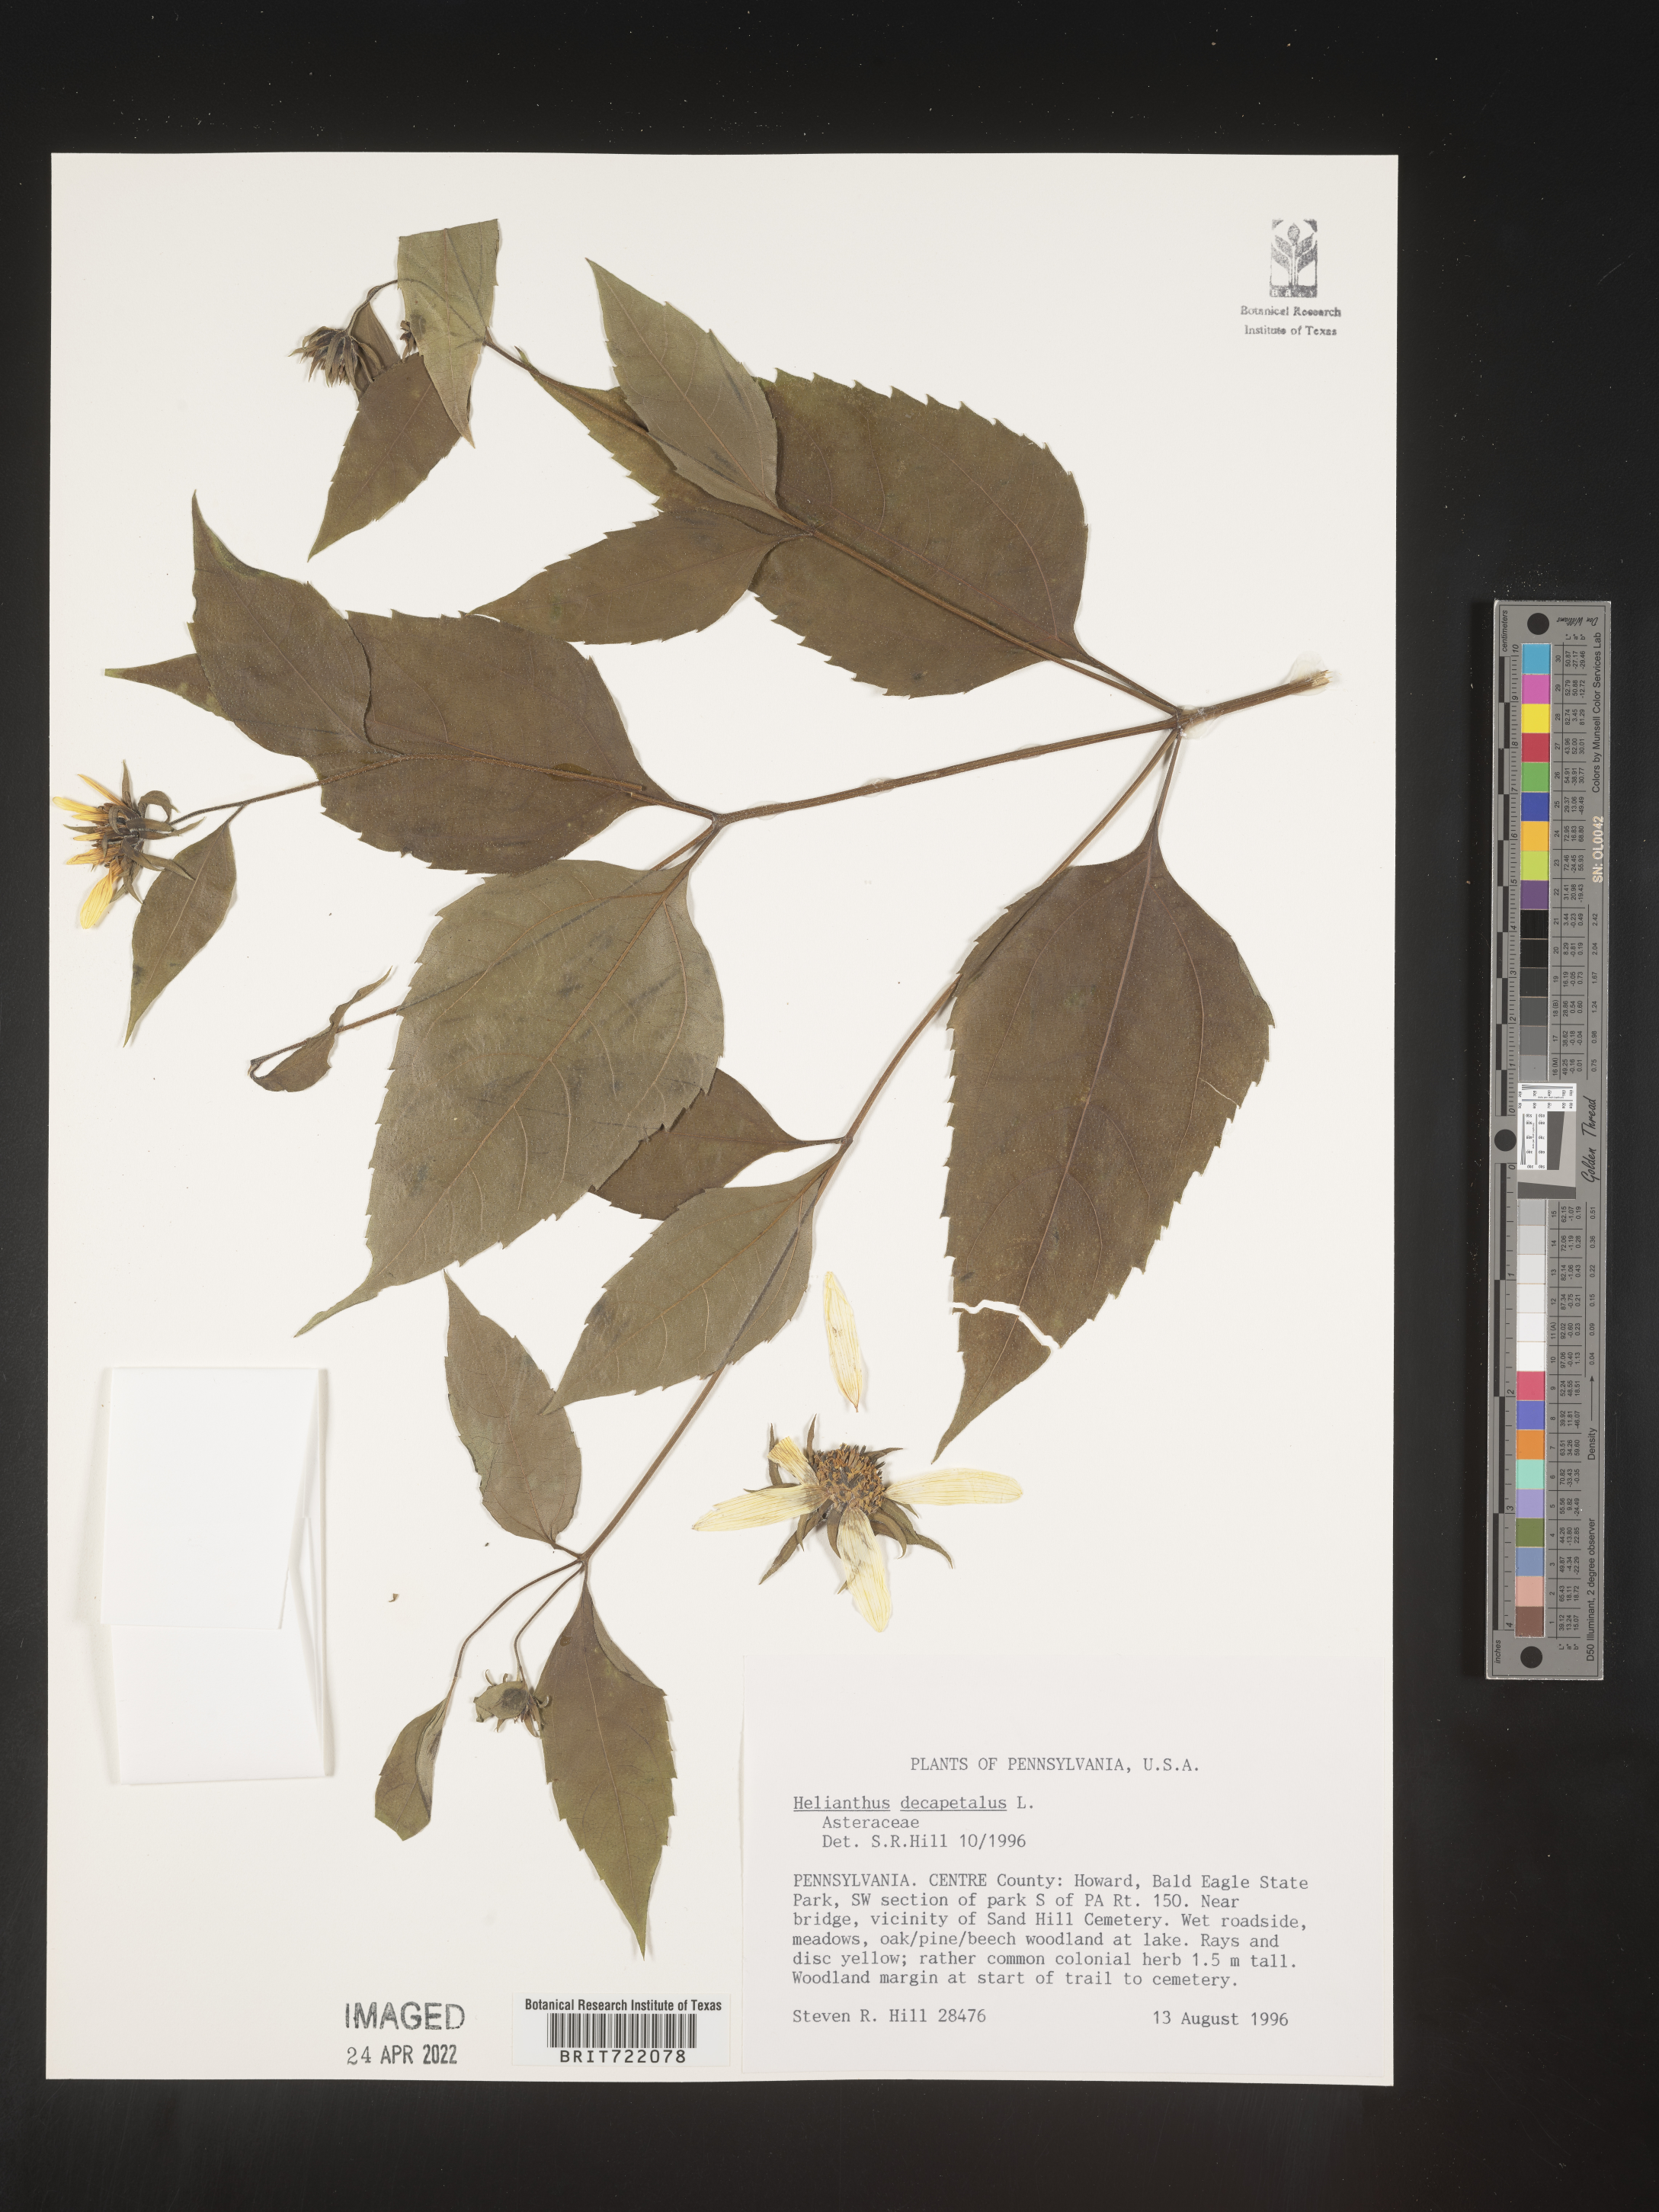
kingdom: Plantae
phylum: Tracheophyta
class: Magnoliopsida
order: Asterales
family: Asteraceae
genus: Helianthus
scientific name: Helianthus decapetalus
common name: Thin-leaved sunflower
